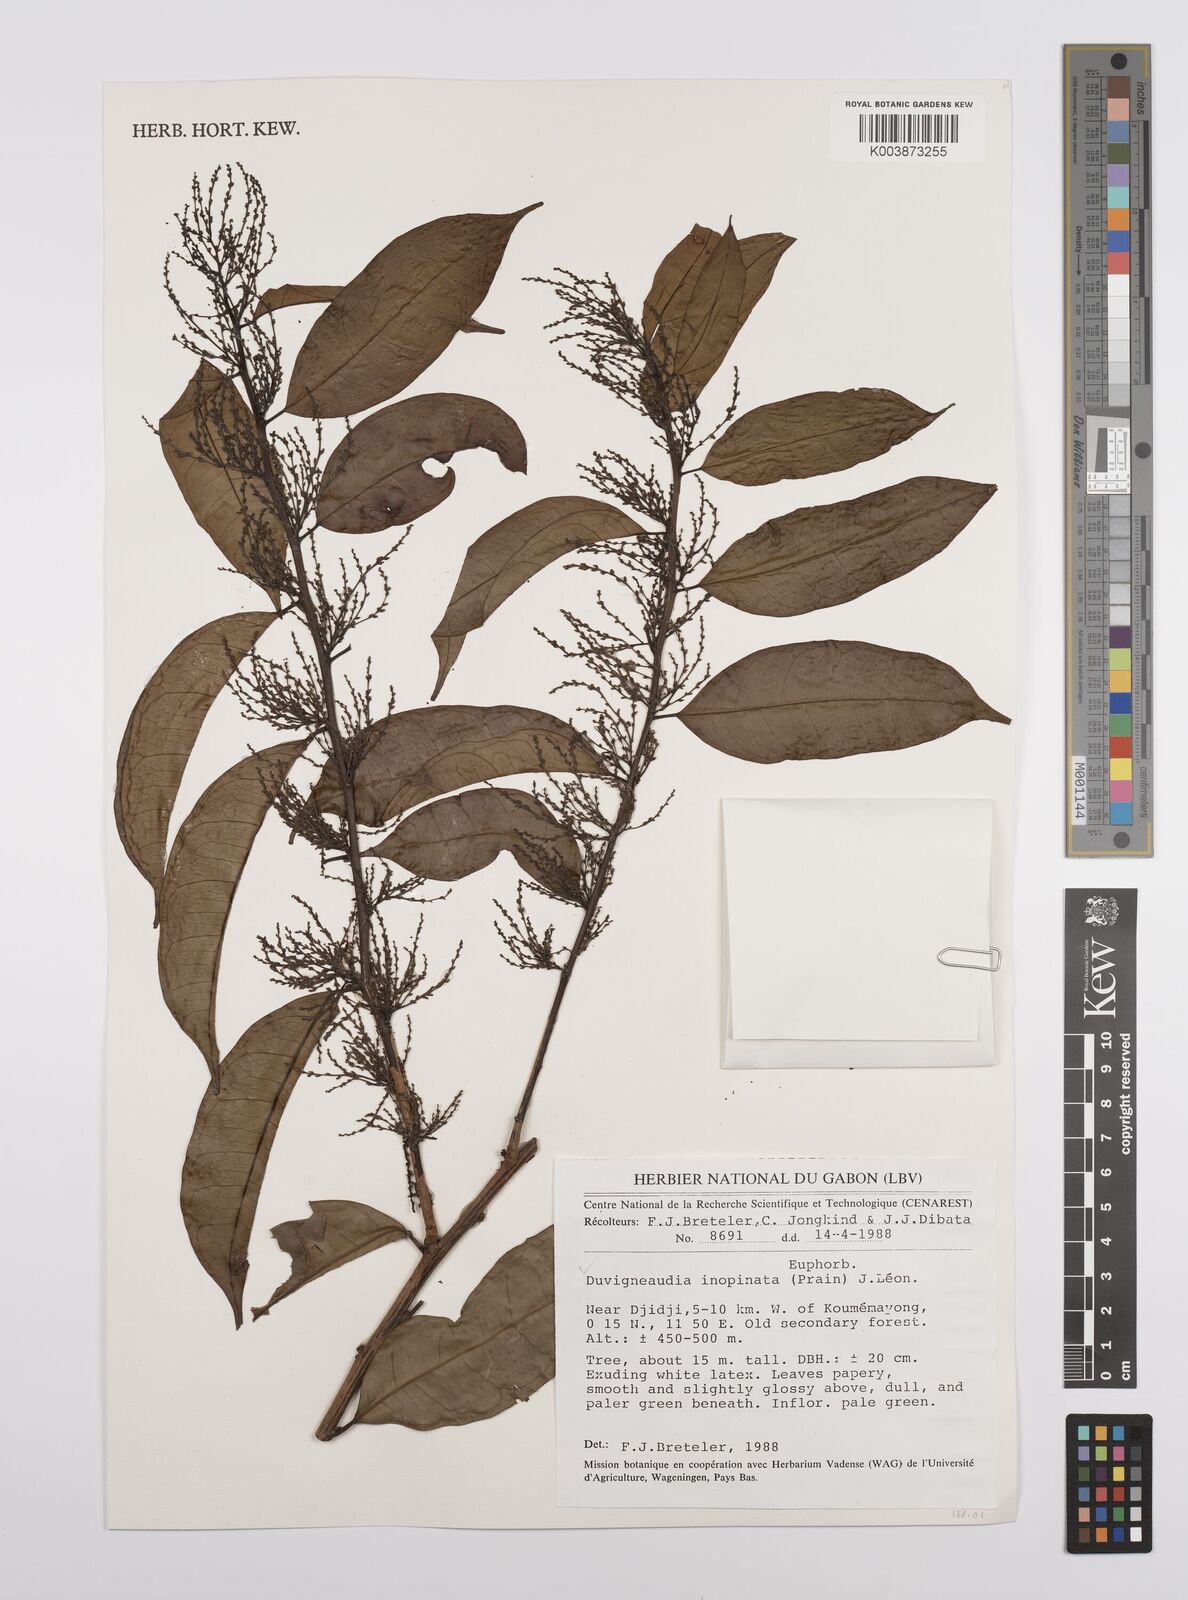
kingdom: Plantae
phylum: Tracheophyta
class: Magnoliopsida
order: Malpighiales
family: Euphorbiaceae
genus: Gymnanthes
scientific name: Gymnanthes inopinata
